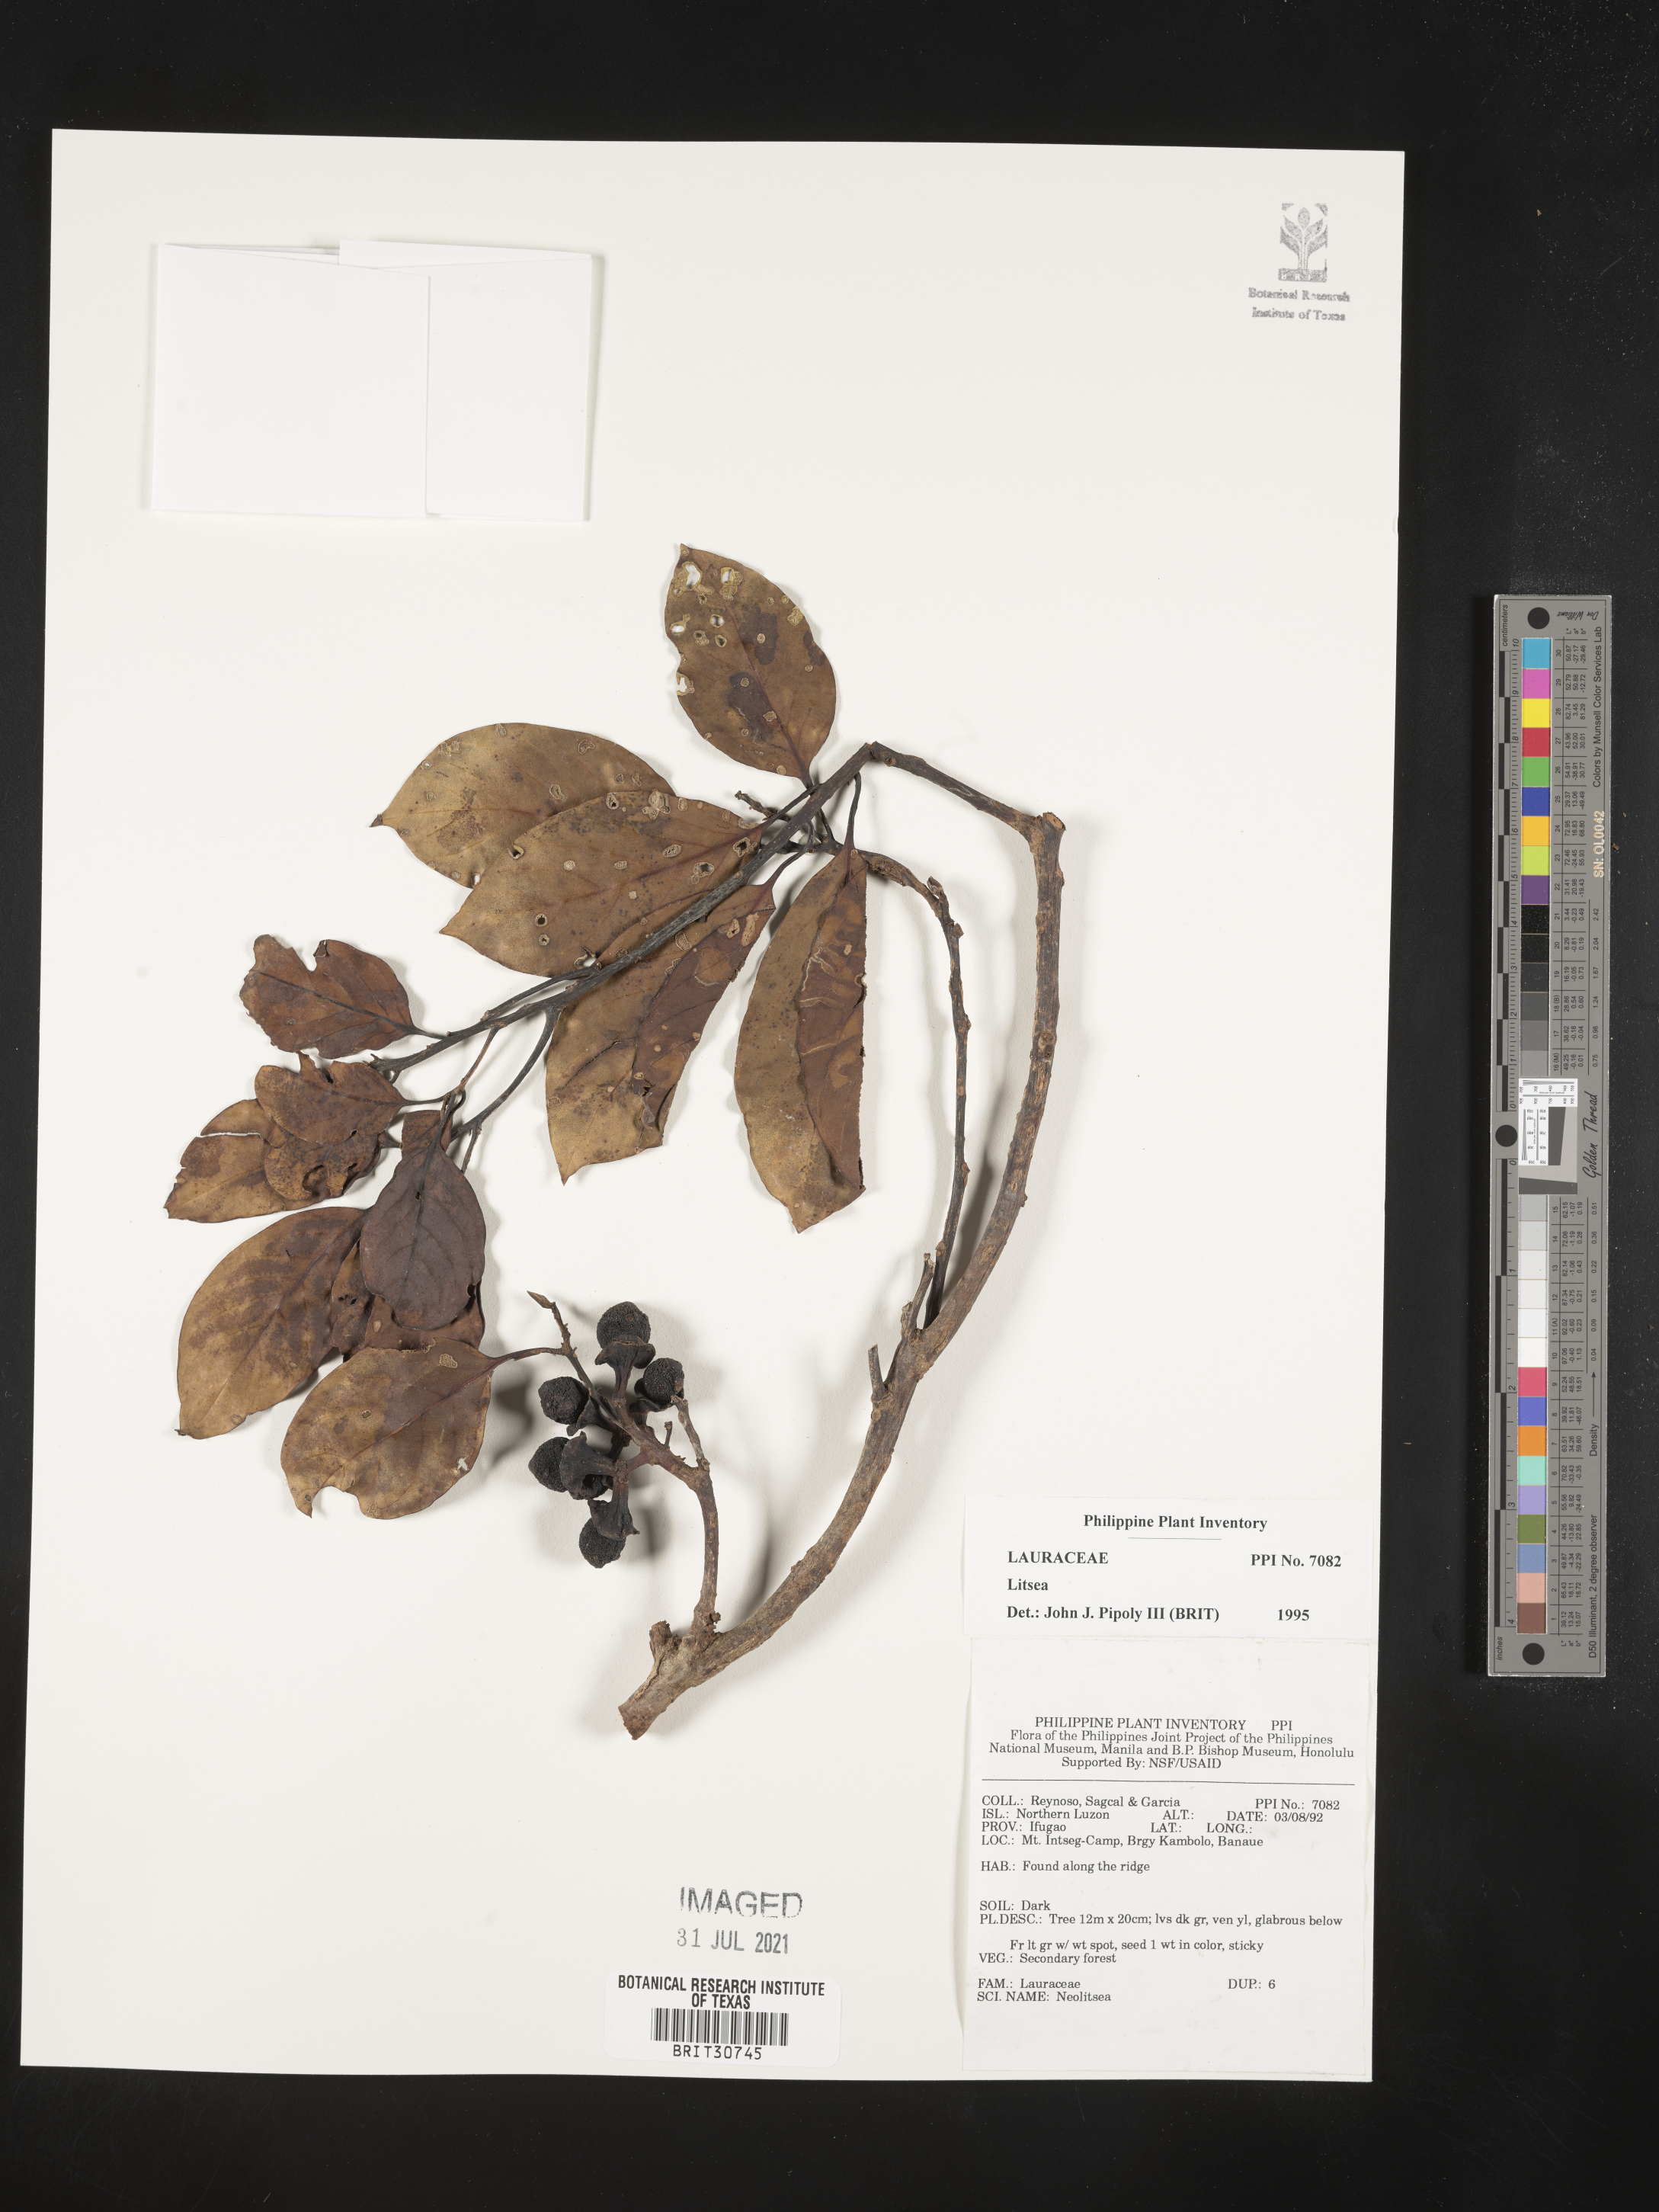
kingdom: Plantae
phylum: Tracheophyta
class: Magnoliopsida
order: Laurales
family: Lauraceae
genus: Litsea
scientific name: Litsea
